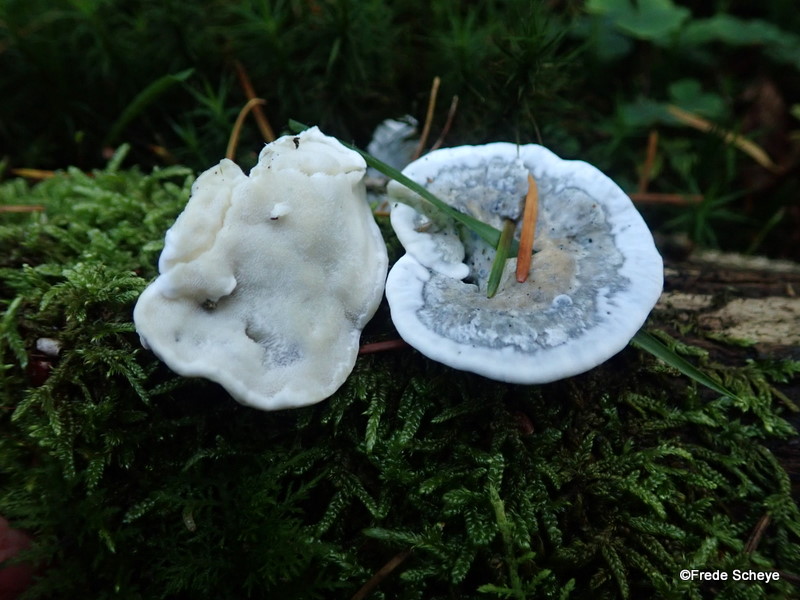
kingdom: Fungi
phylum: Basidiomycota
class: Agaricomycetes
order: Polyporales
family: Polyporaceae
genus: Cyanosporus
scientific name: Cyanosporus caesius
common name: blålig kødporesvamp
